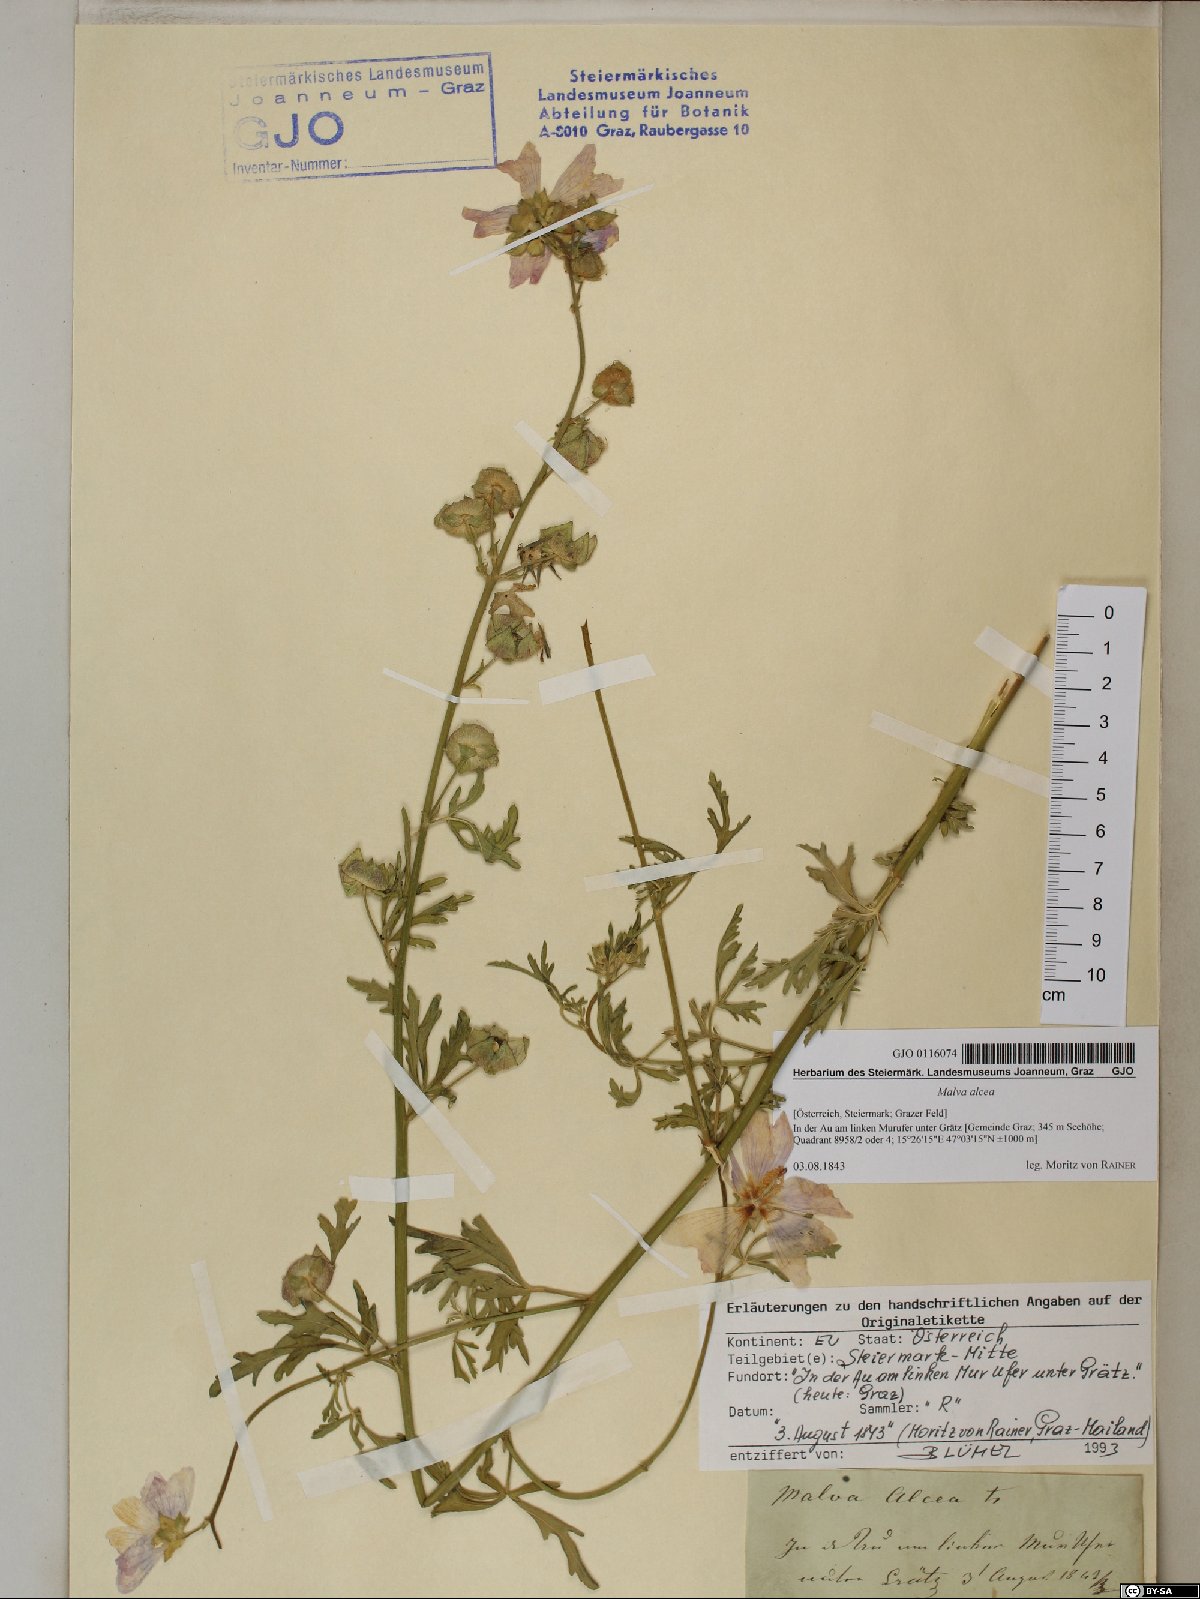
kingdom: Plantae
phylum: Tracheophyta
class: Magnoliopsida
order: Malvales
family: Malvaceae
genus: Malva
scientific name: Malva alcea
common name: Greater musk-mallow
